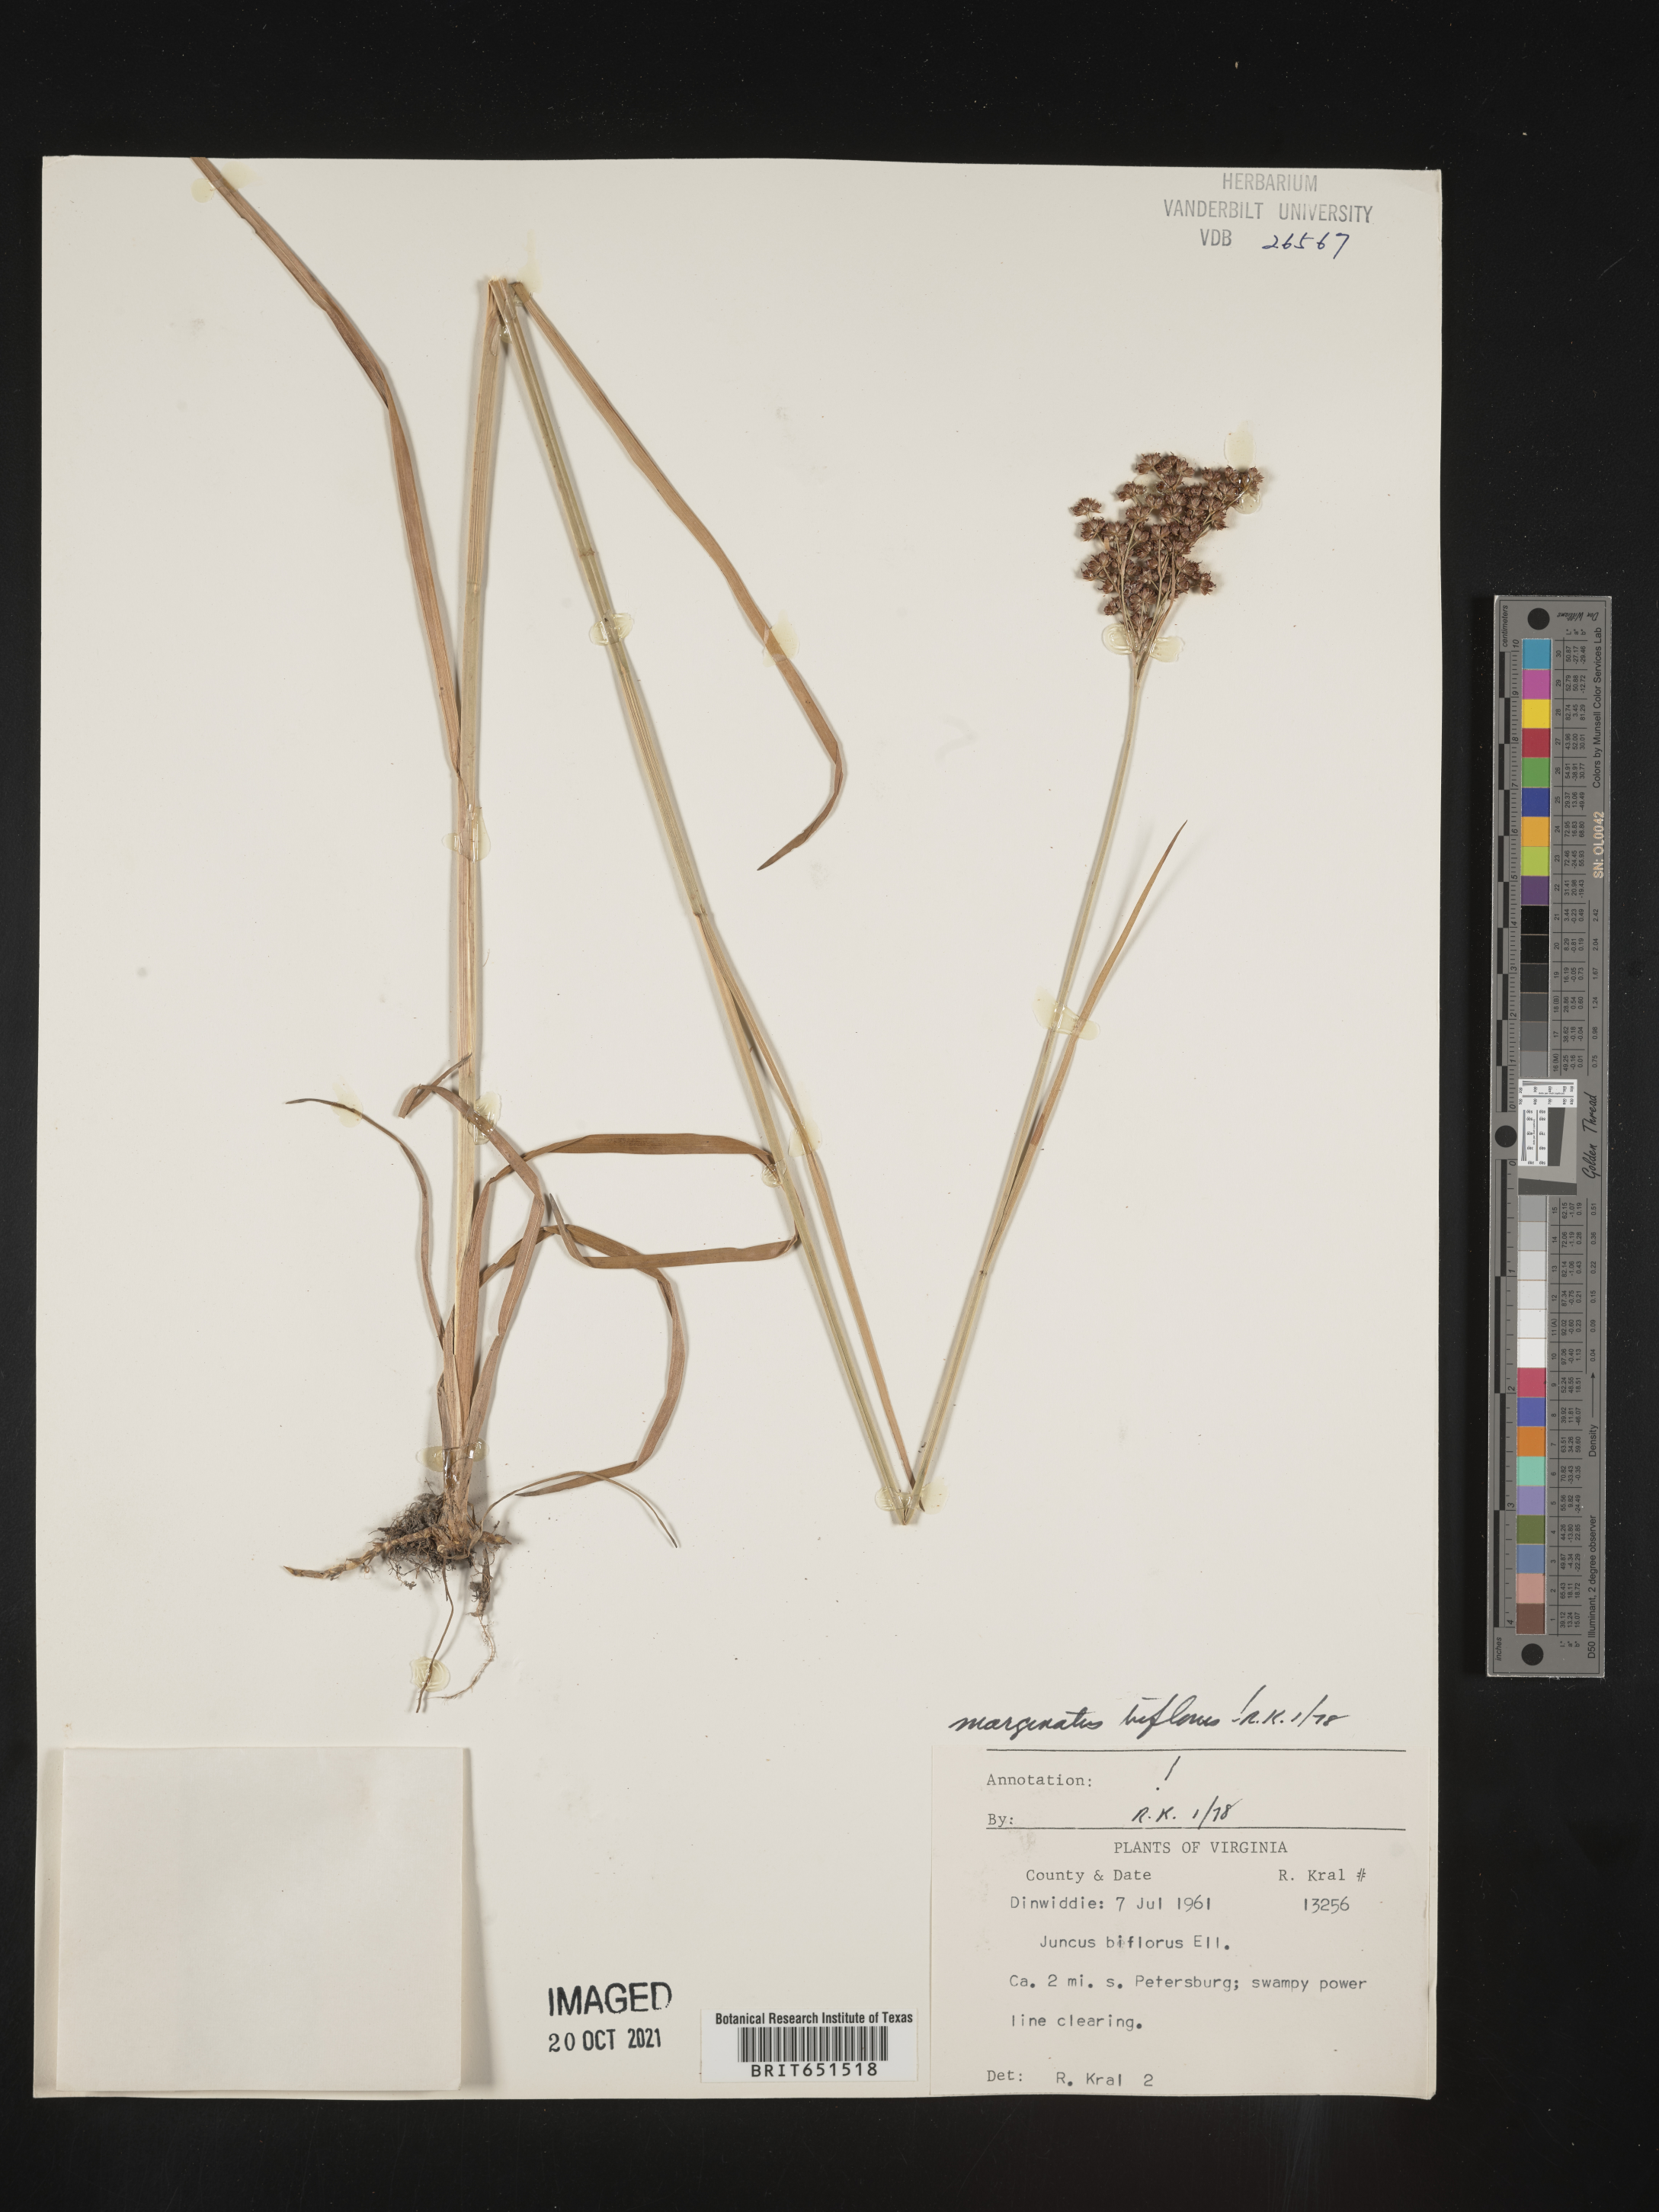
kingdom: Plantae
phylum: Tracheophyta
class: Liliopsida
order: Poales
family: Juncaceae
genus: Juncus
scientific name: Juncus biflorus
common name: Two-flowered rush
